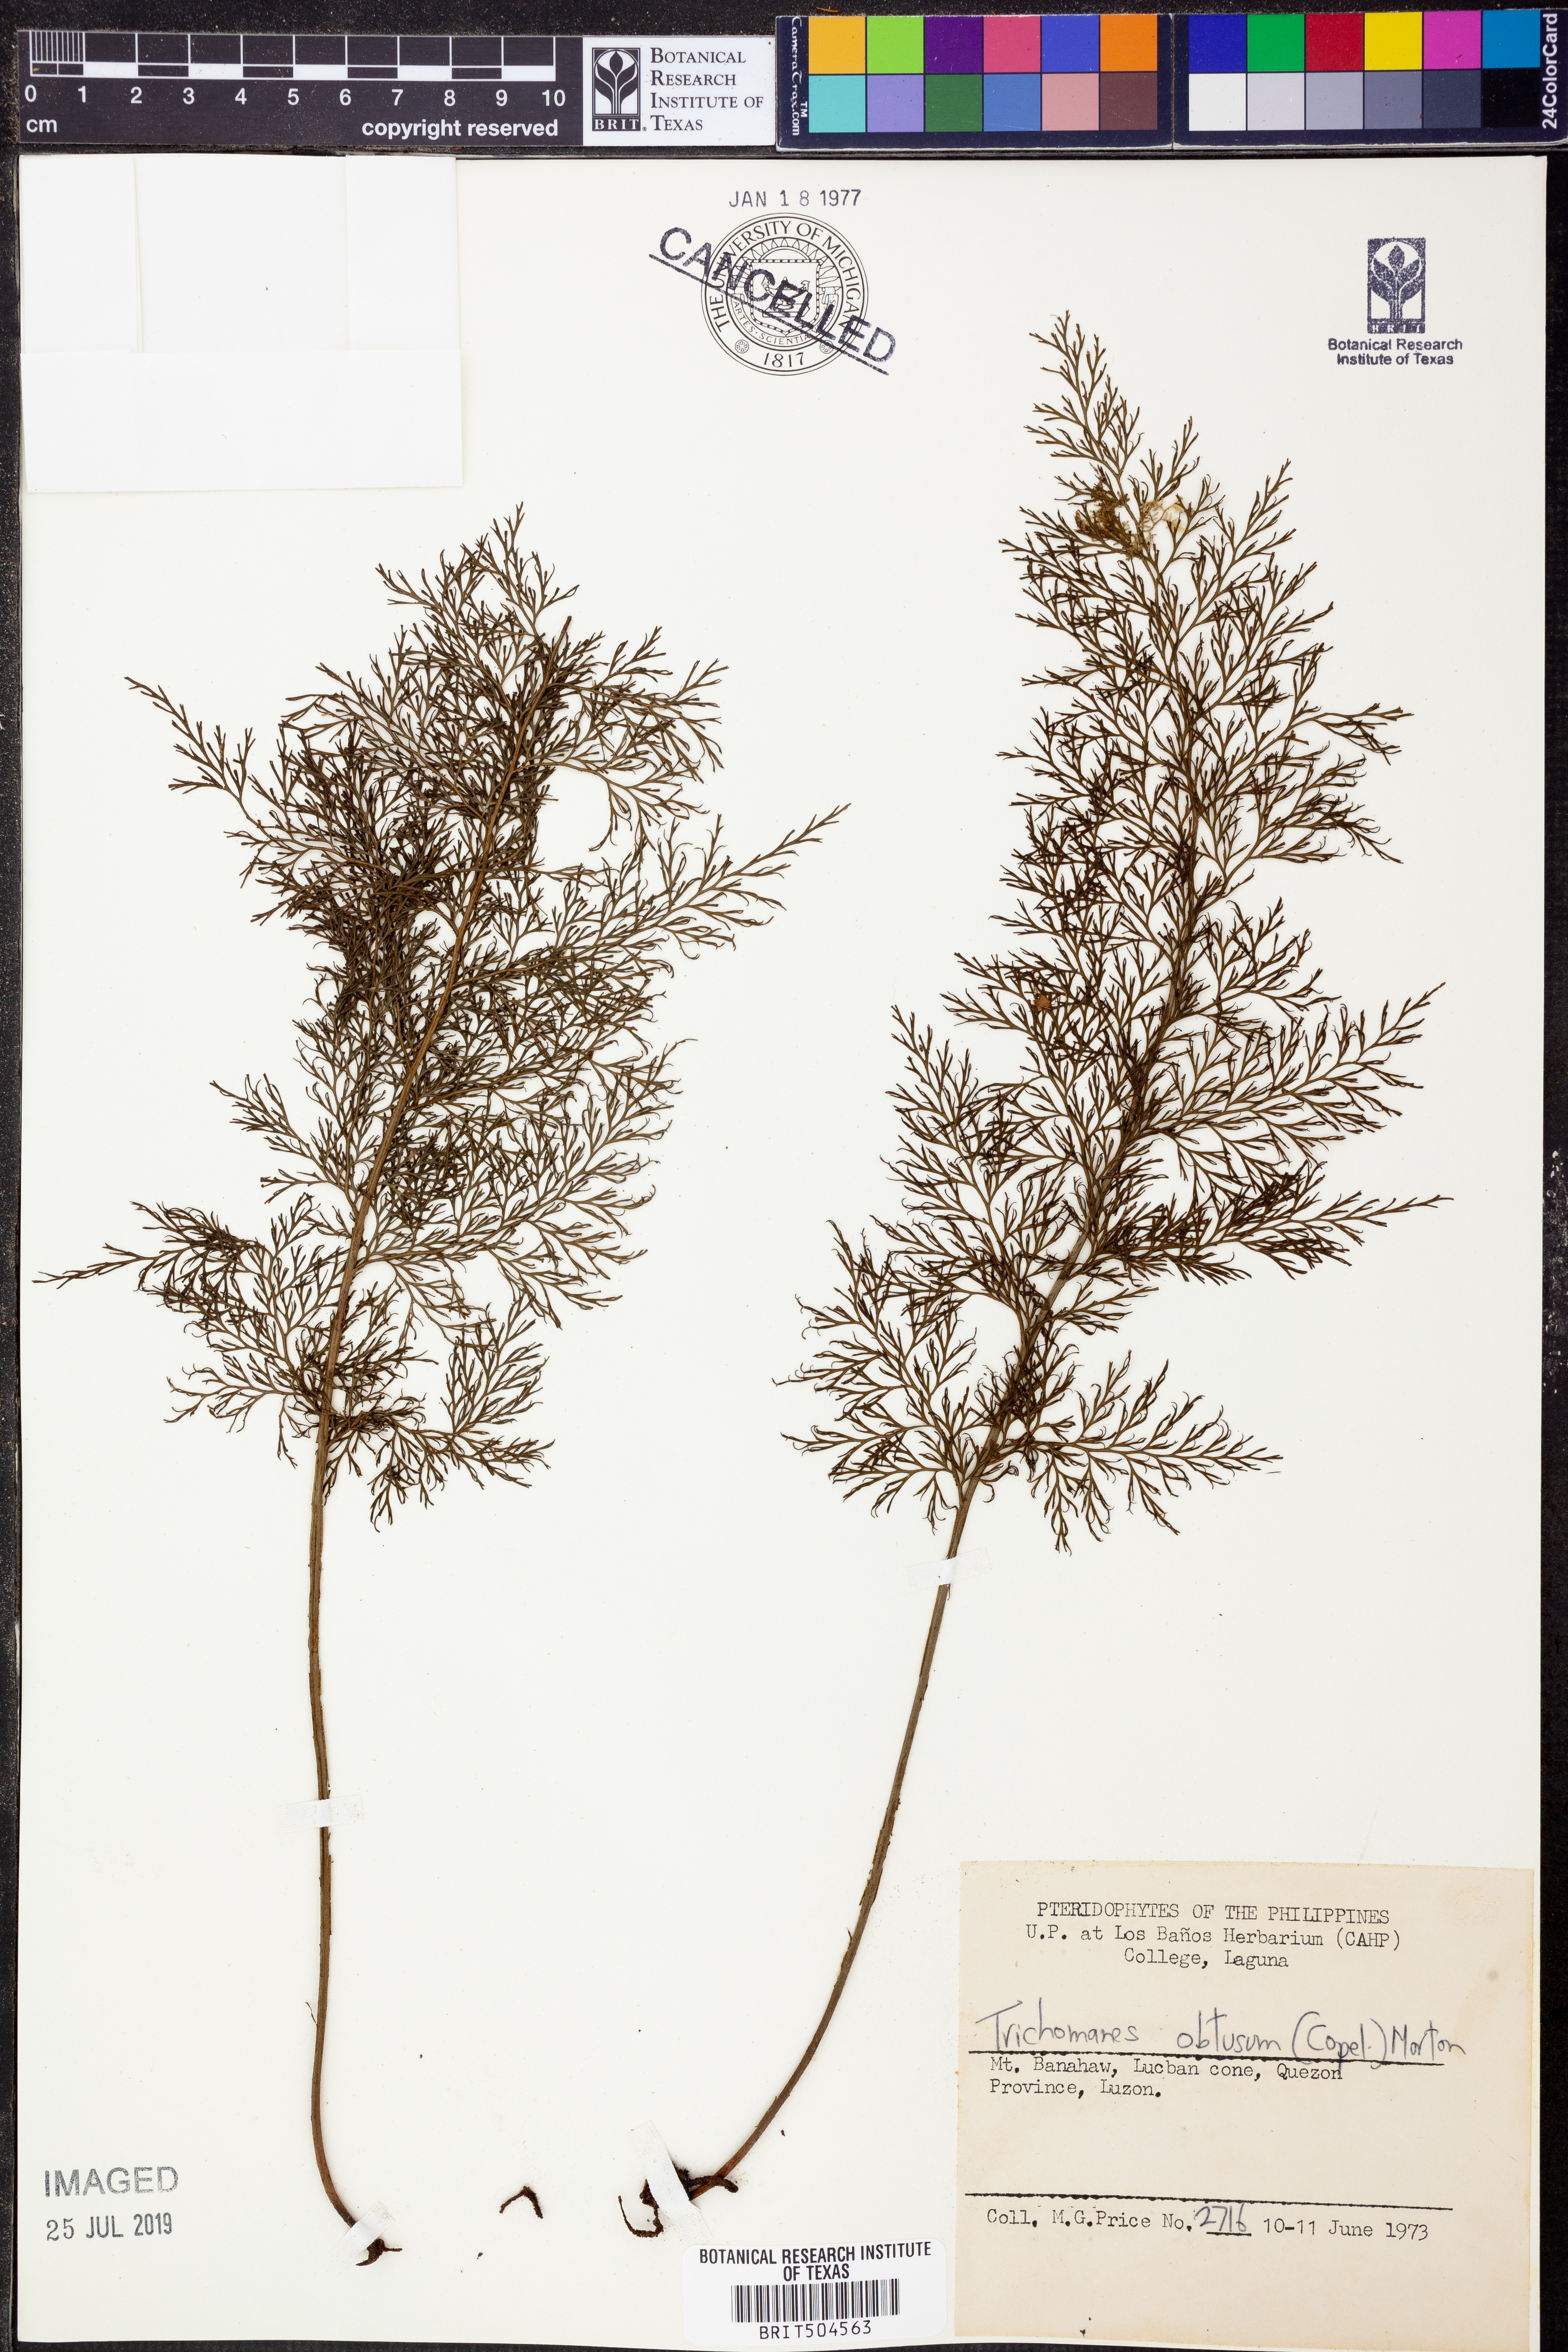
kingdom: Plantae
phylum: Tracheophyta
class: Polypodiopsida
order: Hymenophyllales
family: Hymenophyllaceae
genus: Hymenophyllum
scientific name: Hymenophyllum obtusum
